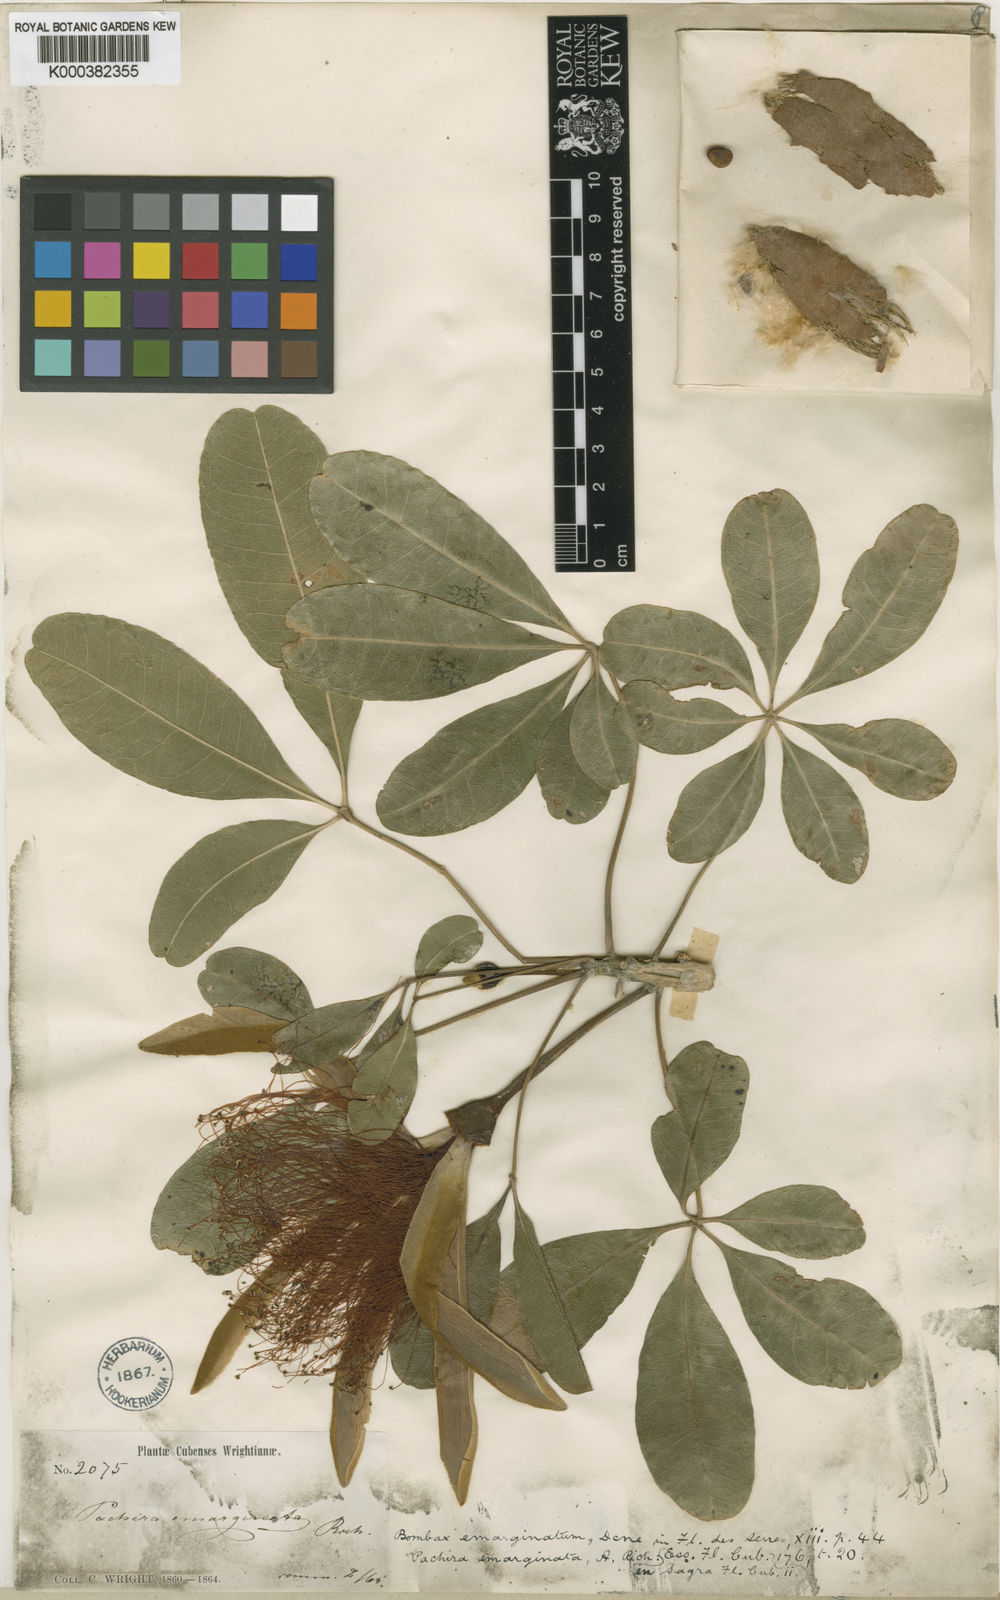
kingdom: Plantae
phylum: Tracheophyta
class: Magnoliopsida
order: Malvales
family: Malvaceae
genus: Pachira
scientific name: Pachira cubensis
